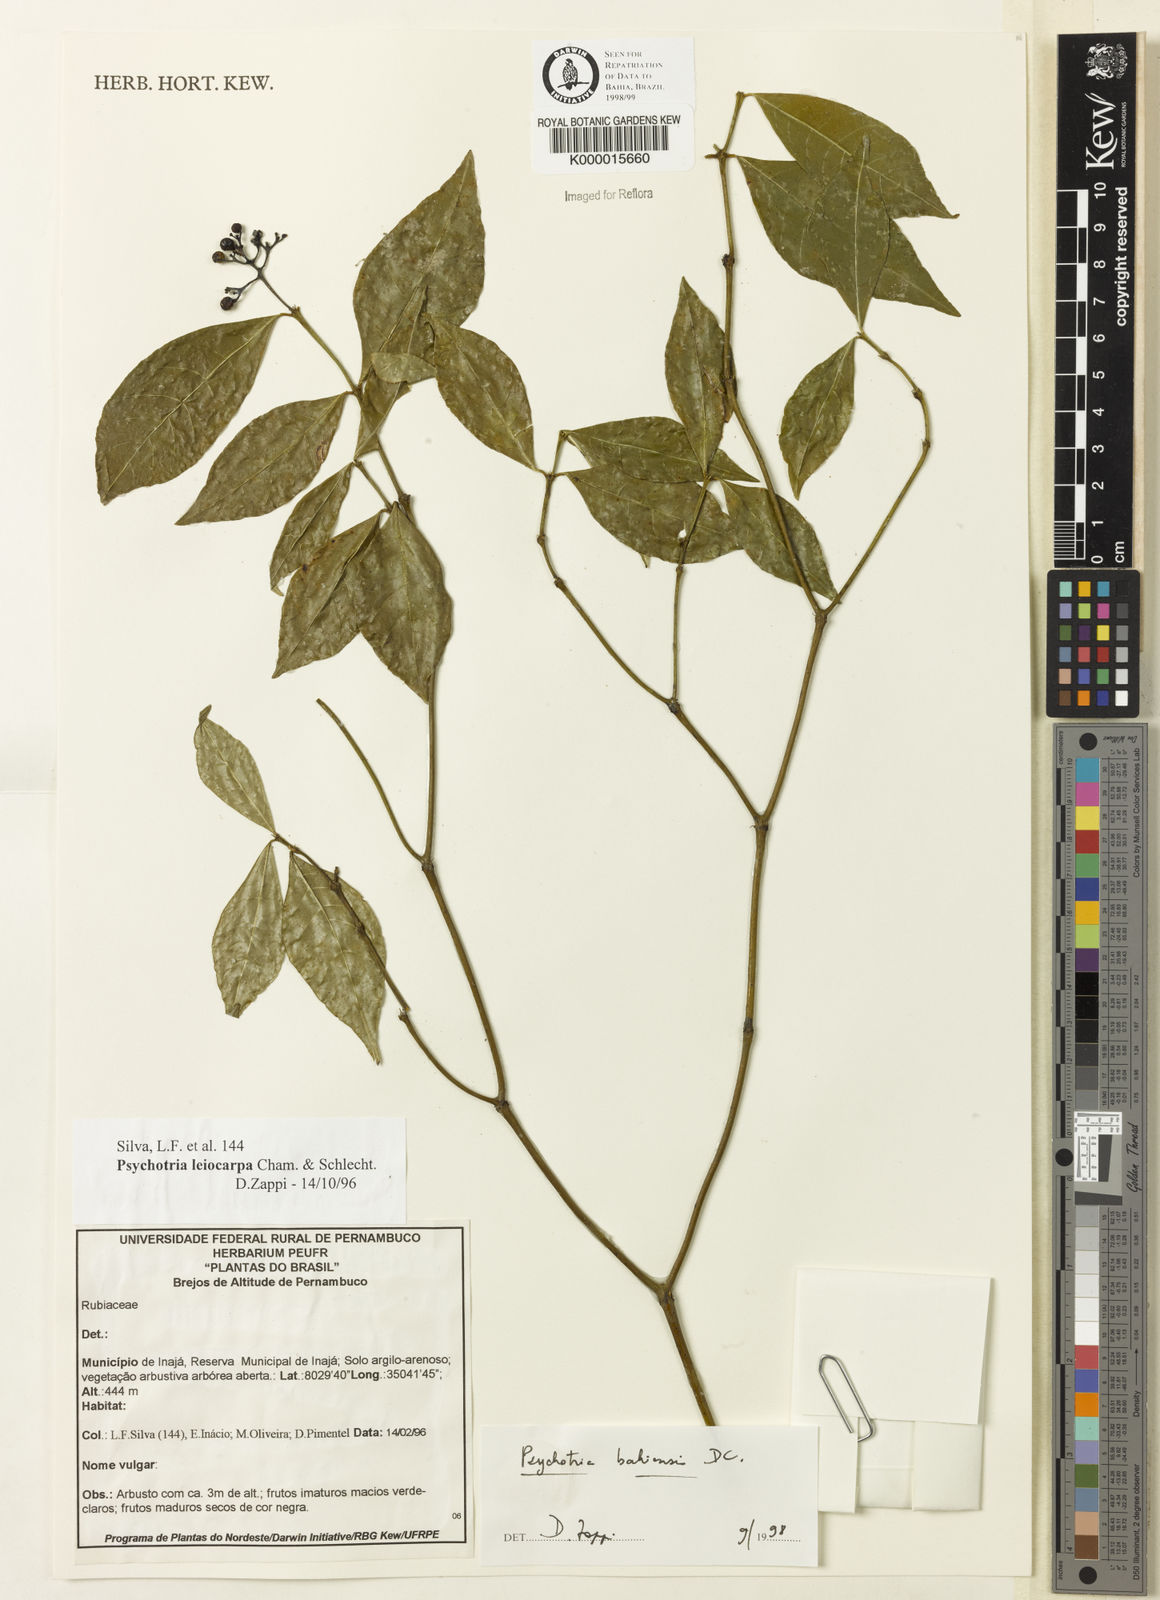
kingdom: Plantae
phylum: Tracheophyta
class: Magnoliopsida
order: Gentianales
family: Rubiaceae
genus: Psychotria
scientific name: Psychotria bahiensis
